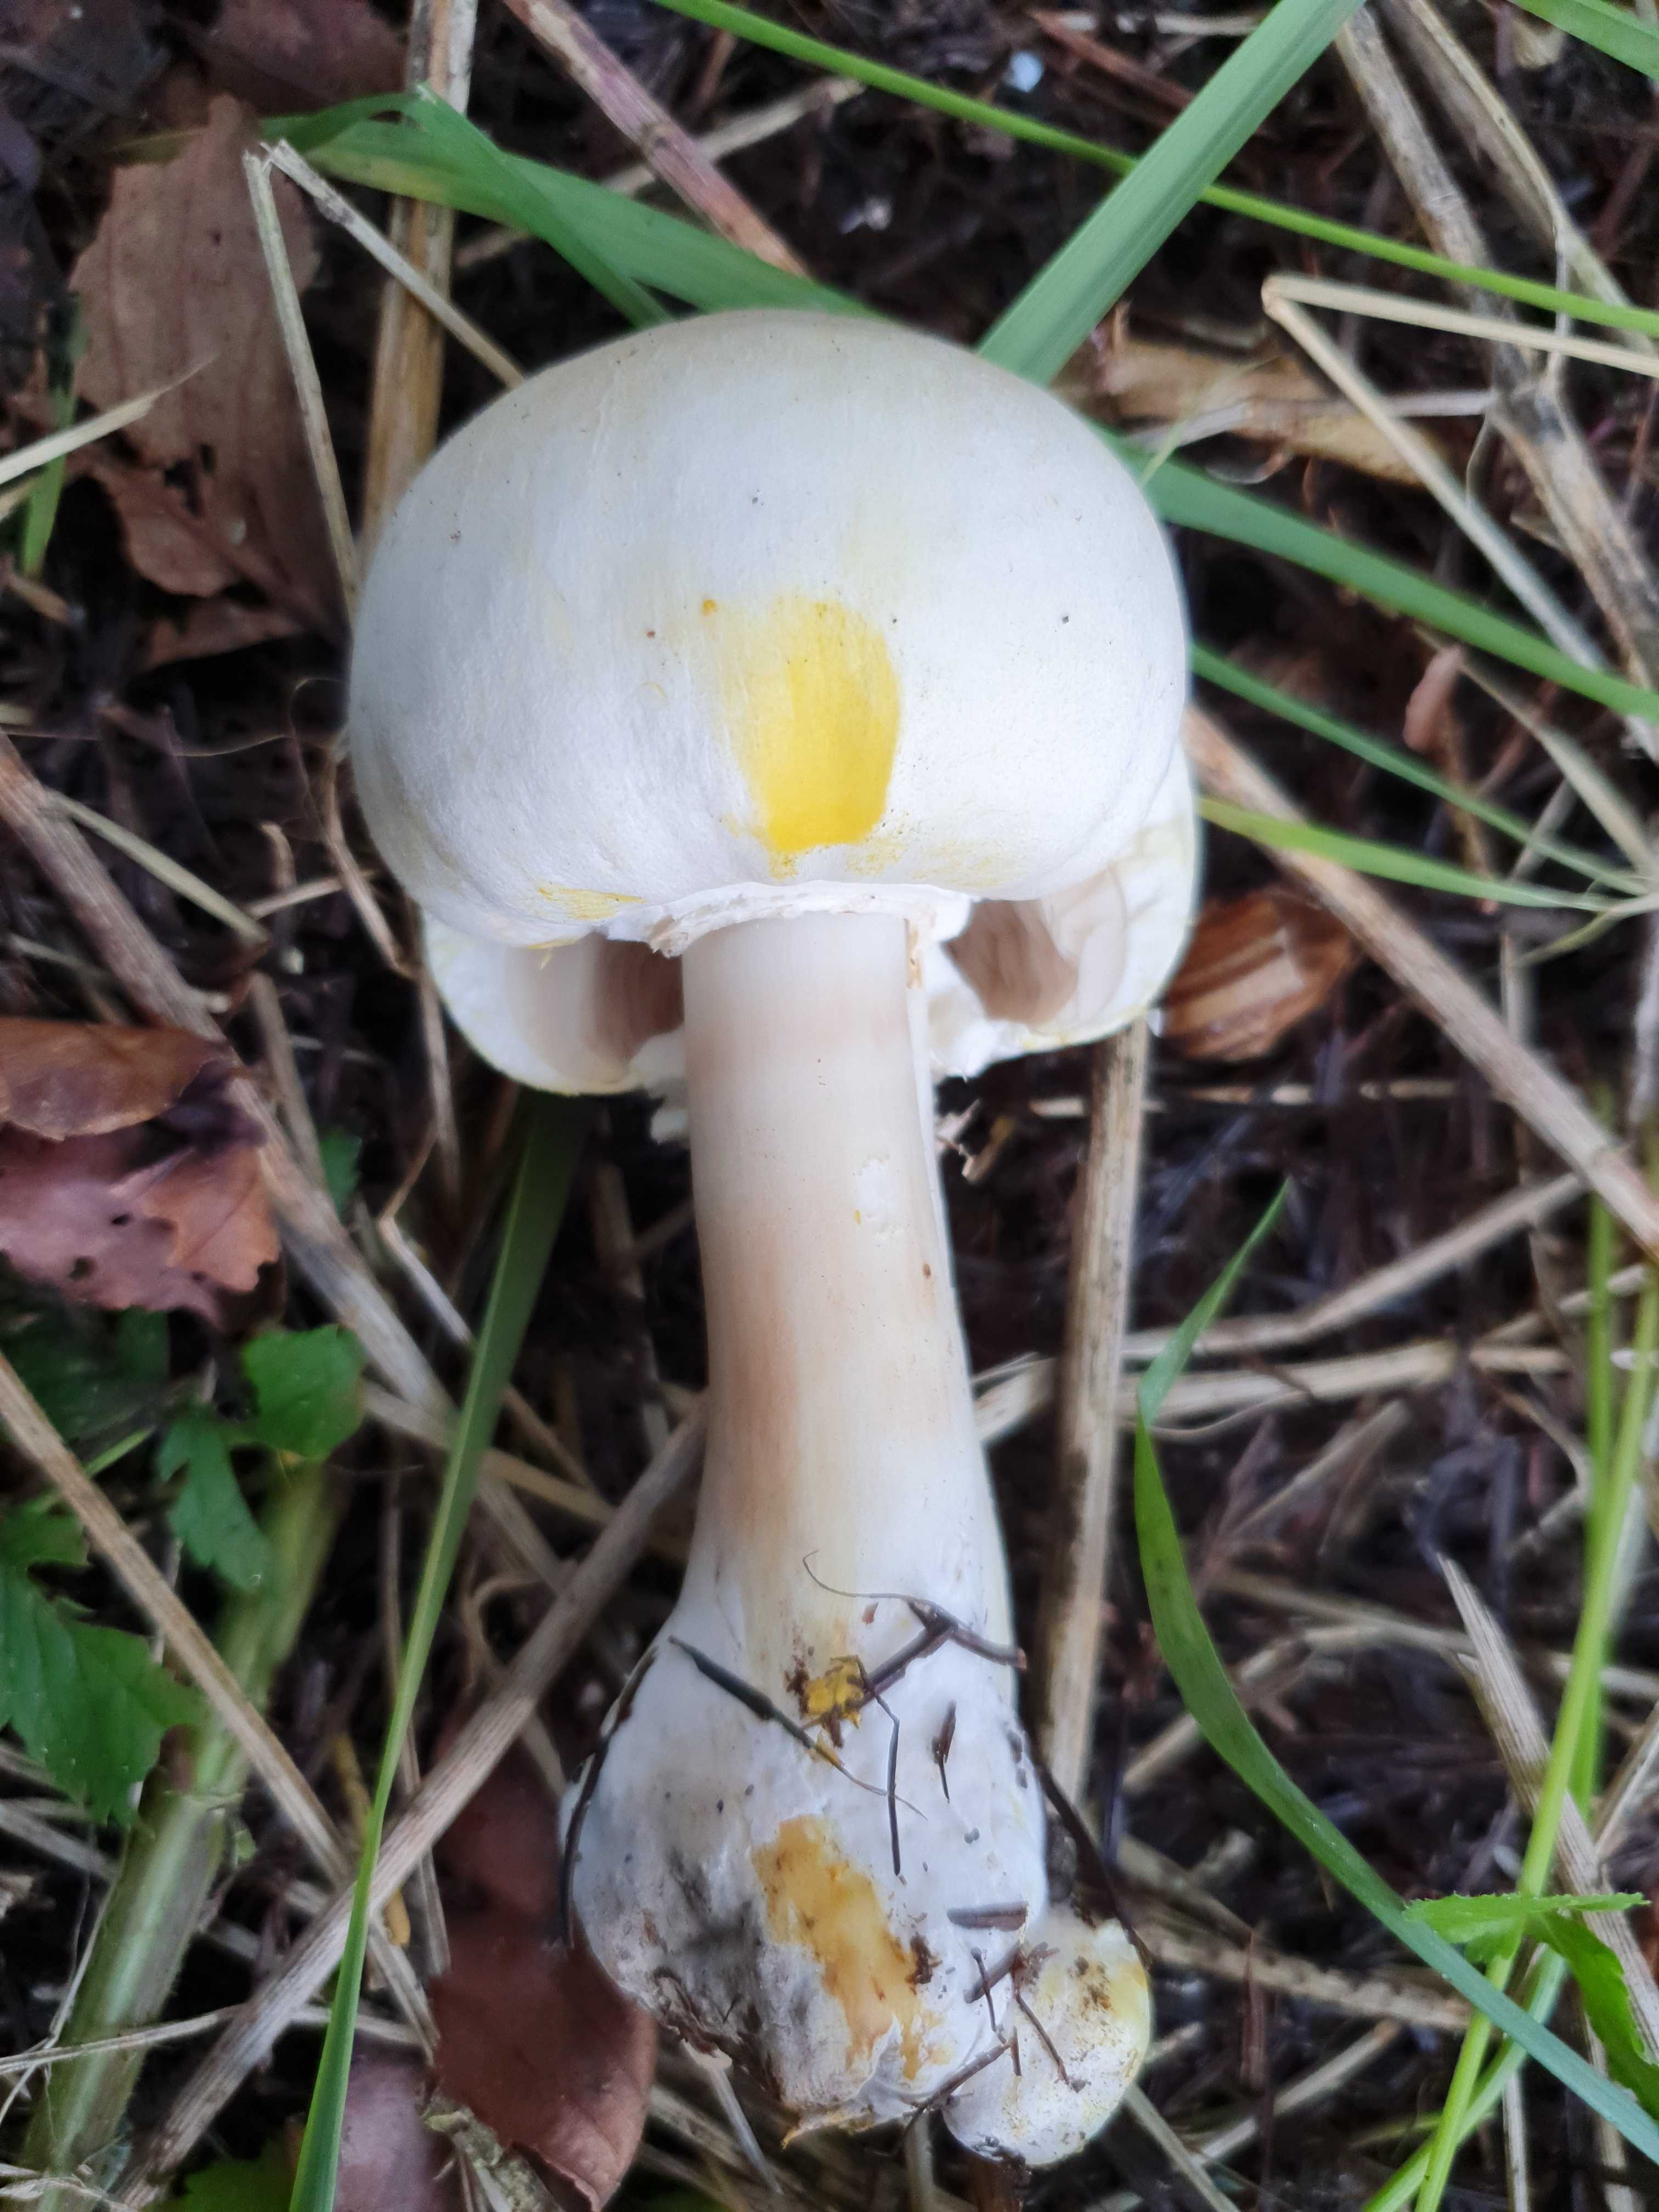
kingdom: Fungi
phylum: Basidiomycota
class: Agaricomycetes
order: Agaricales
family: Agaricaceae
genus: Agaricus
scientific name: Agaricus xanthodermus
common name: karbol-champignon
